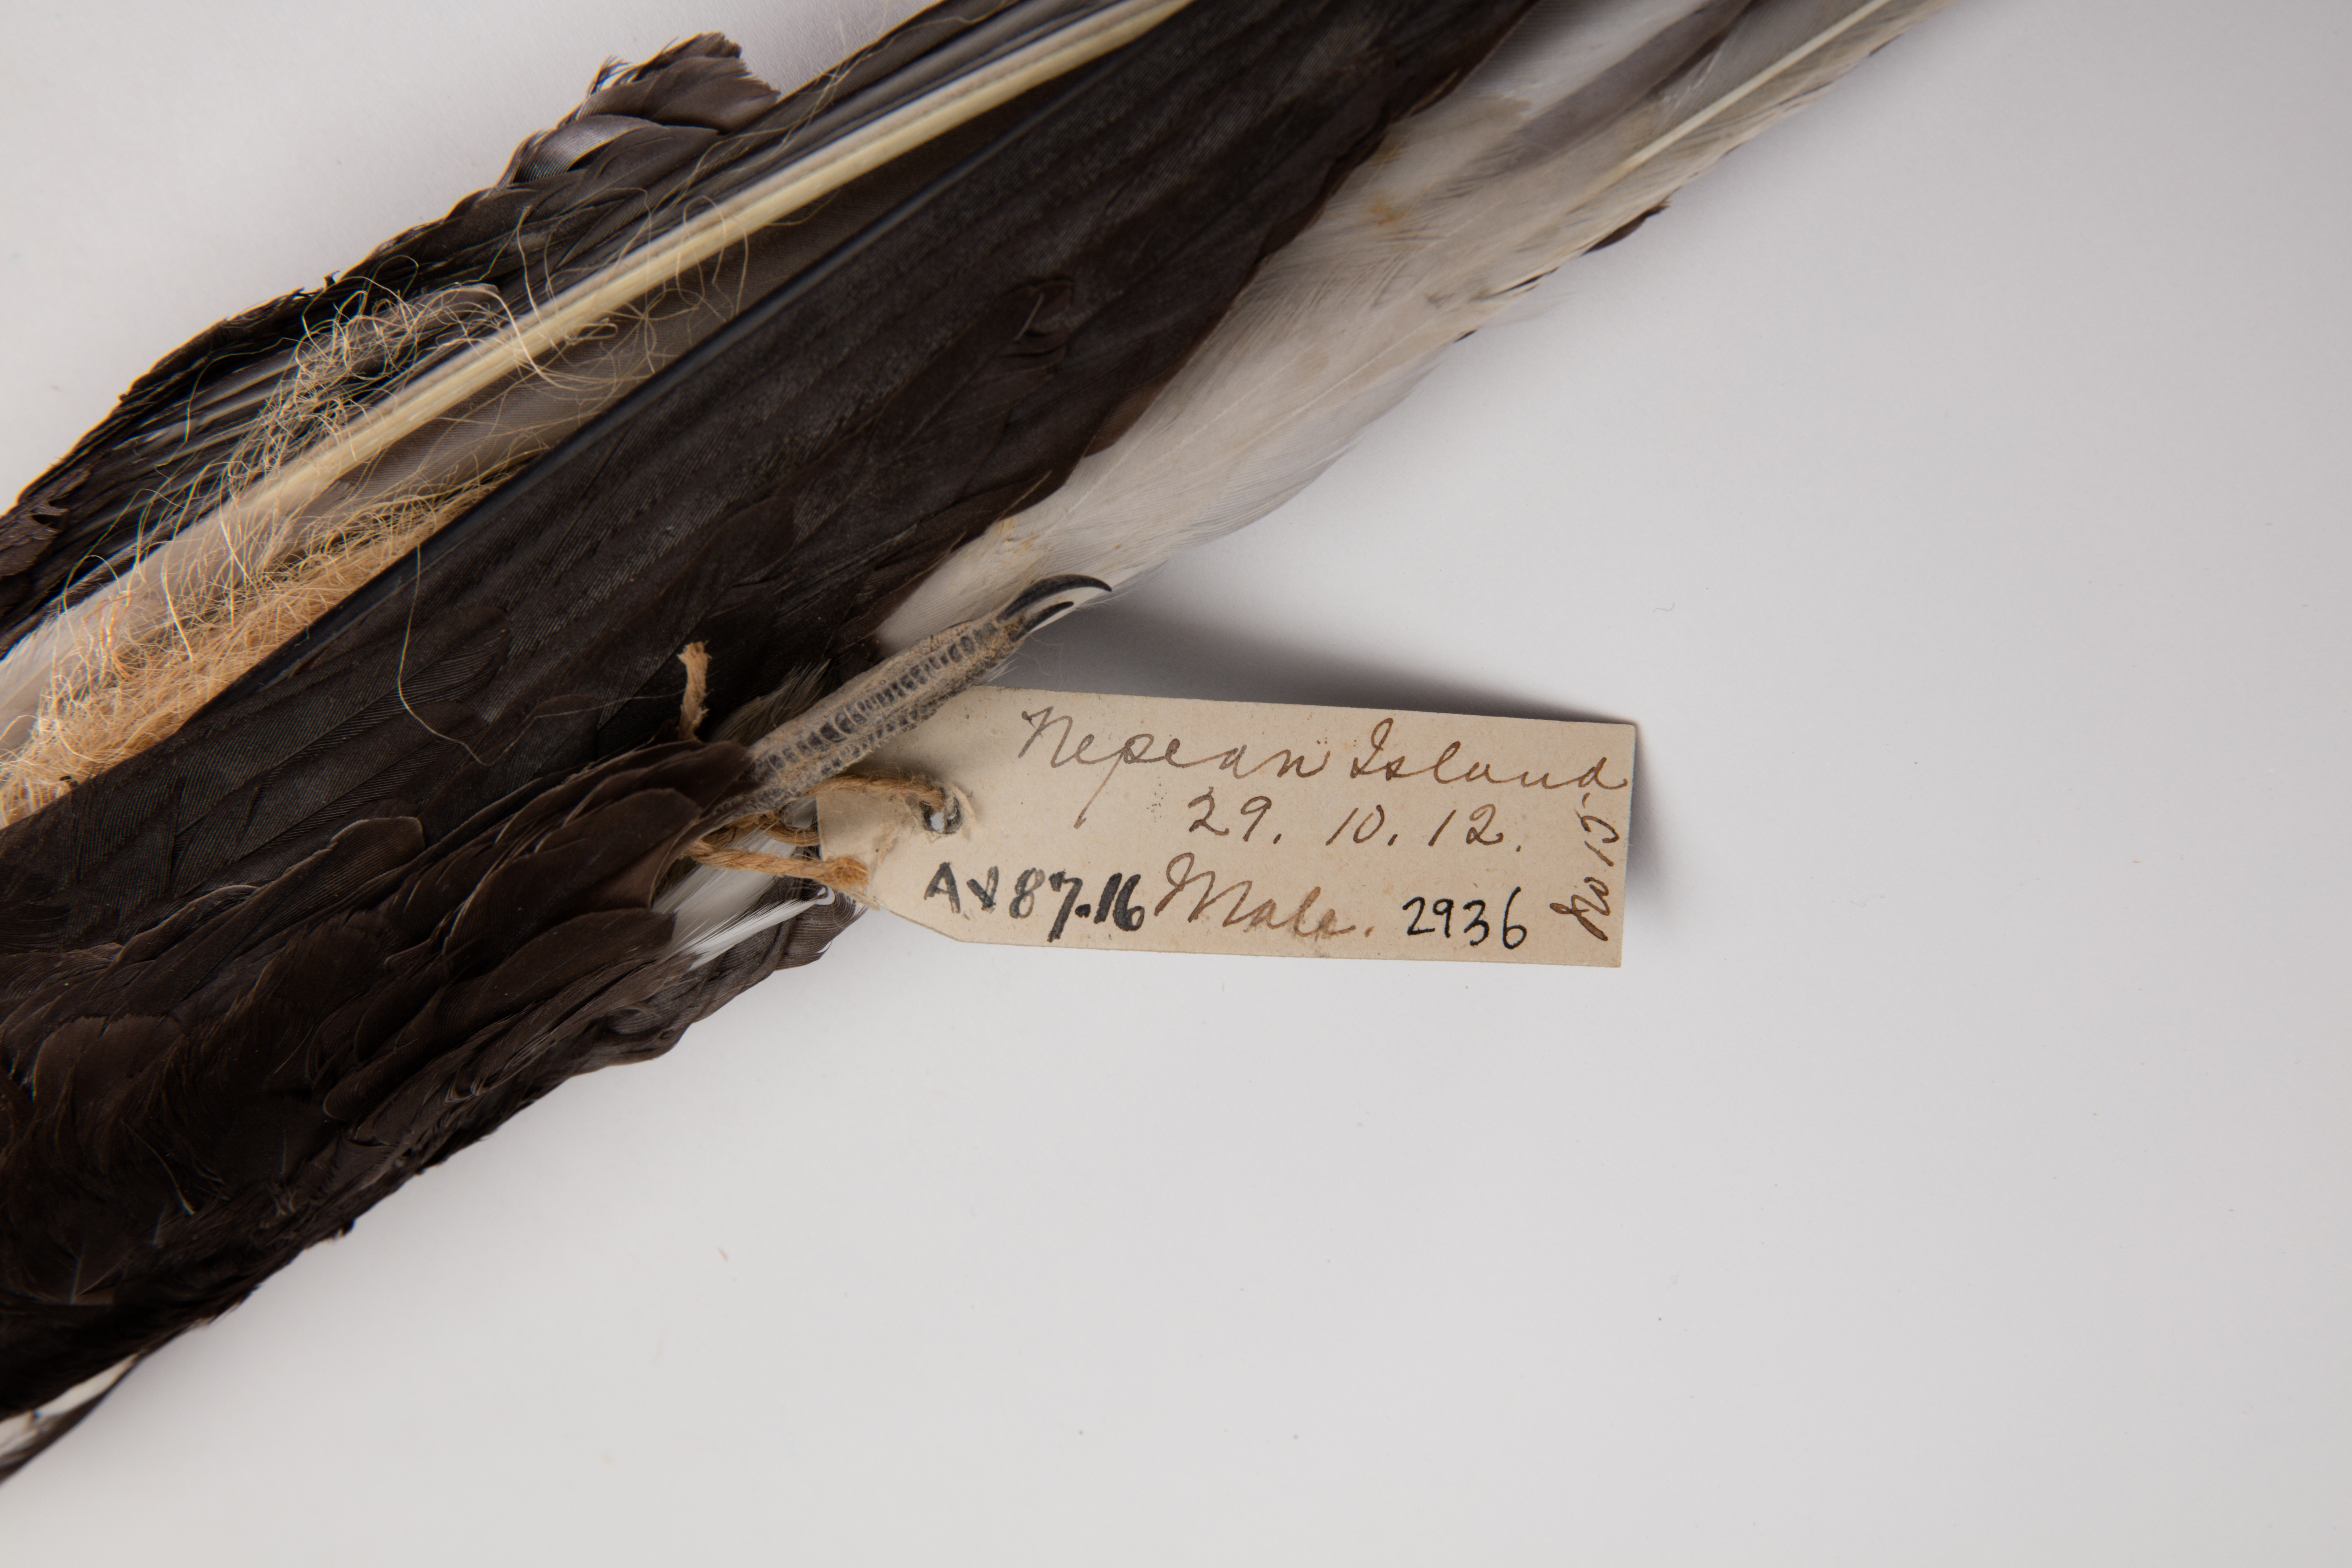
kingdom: Animalia
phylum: Chordata
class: Aves
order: Charadriiformes
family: Laridae
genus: Onychoprion
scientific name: Onychoprion fuscatus
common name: Sooty tern
